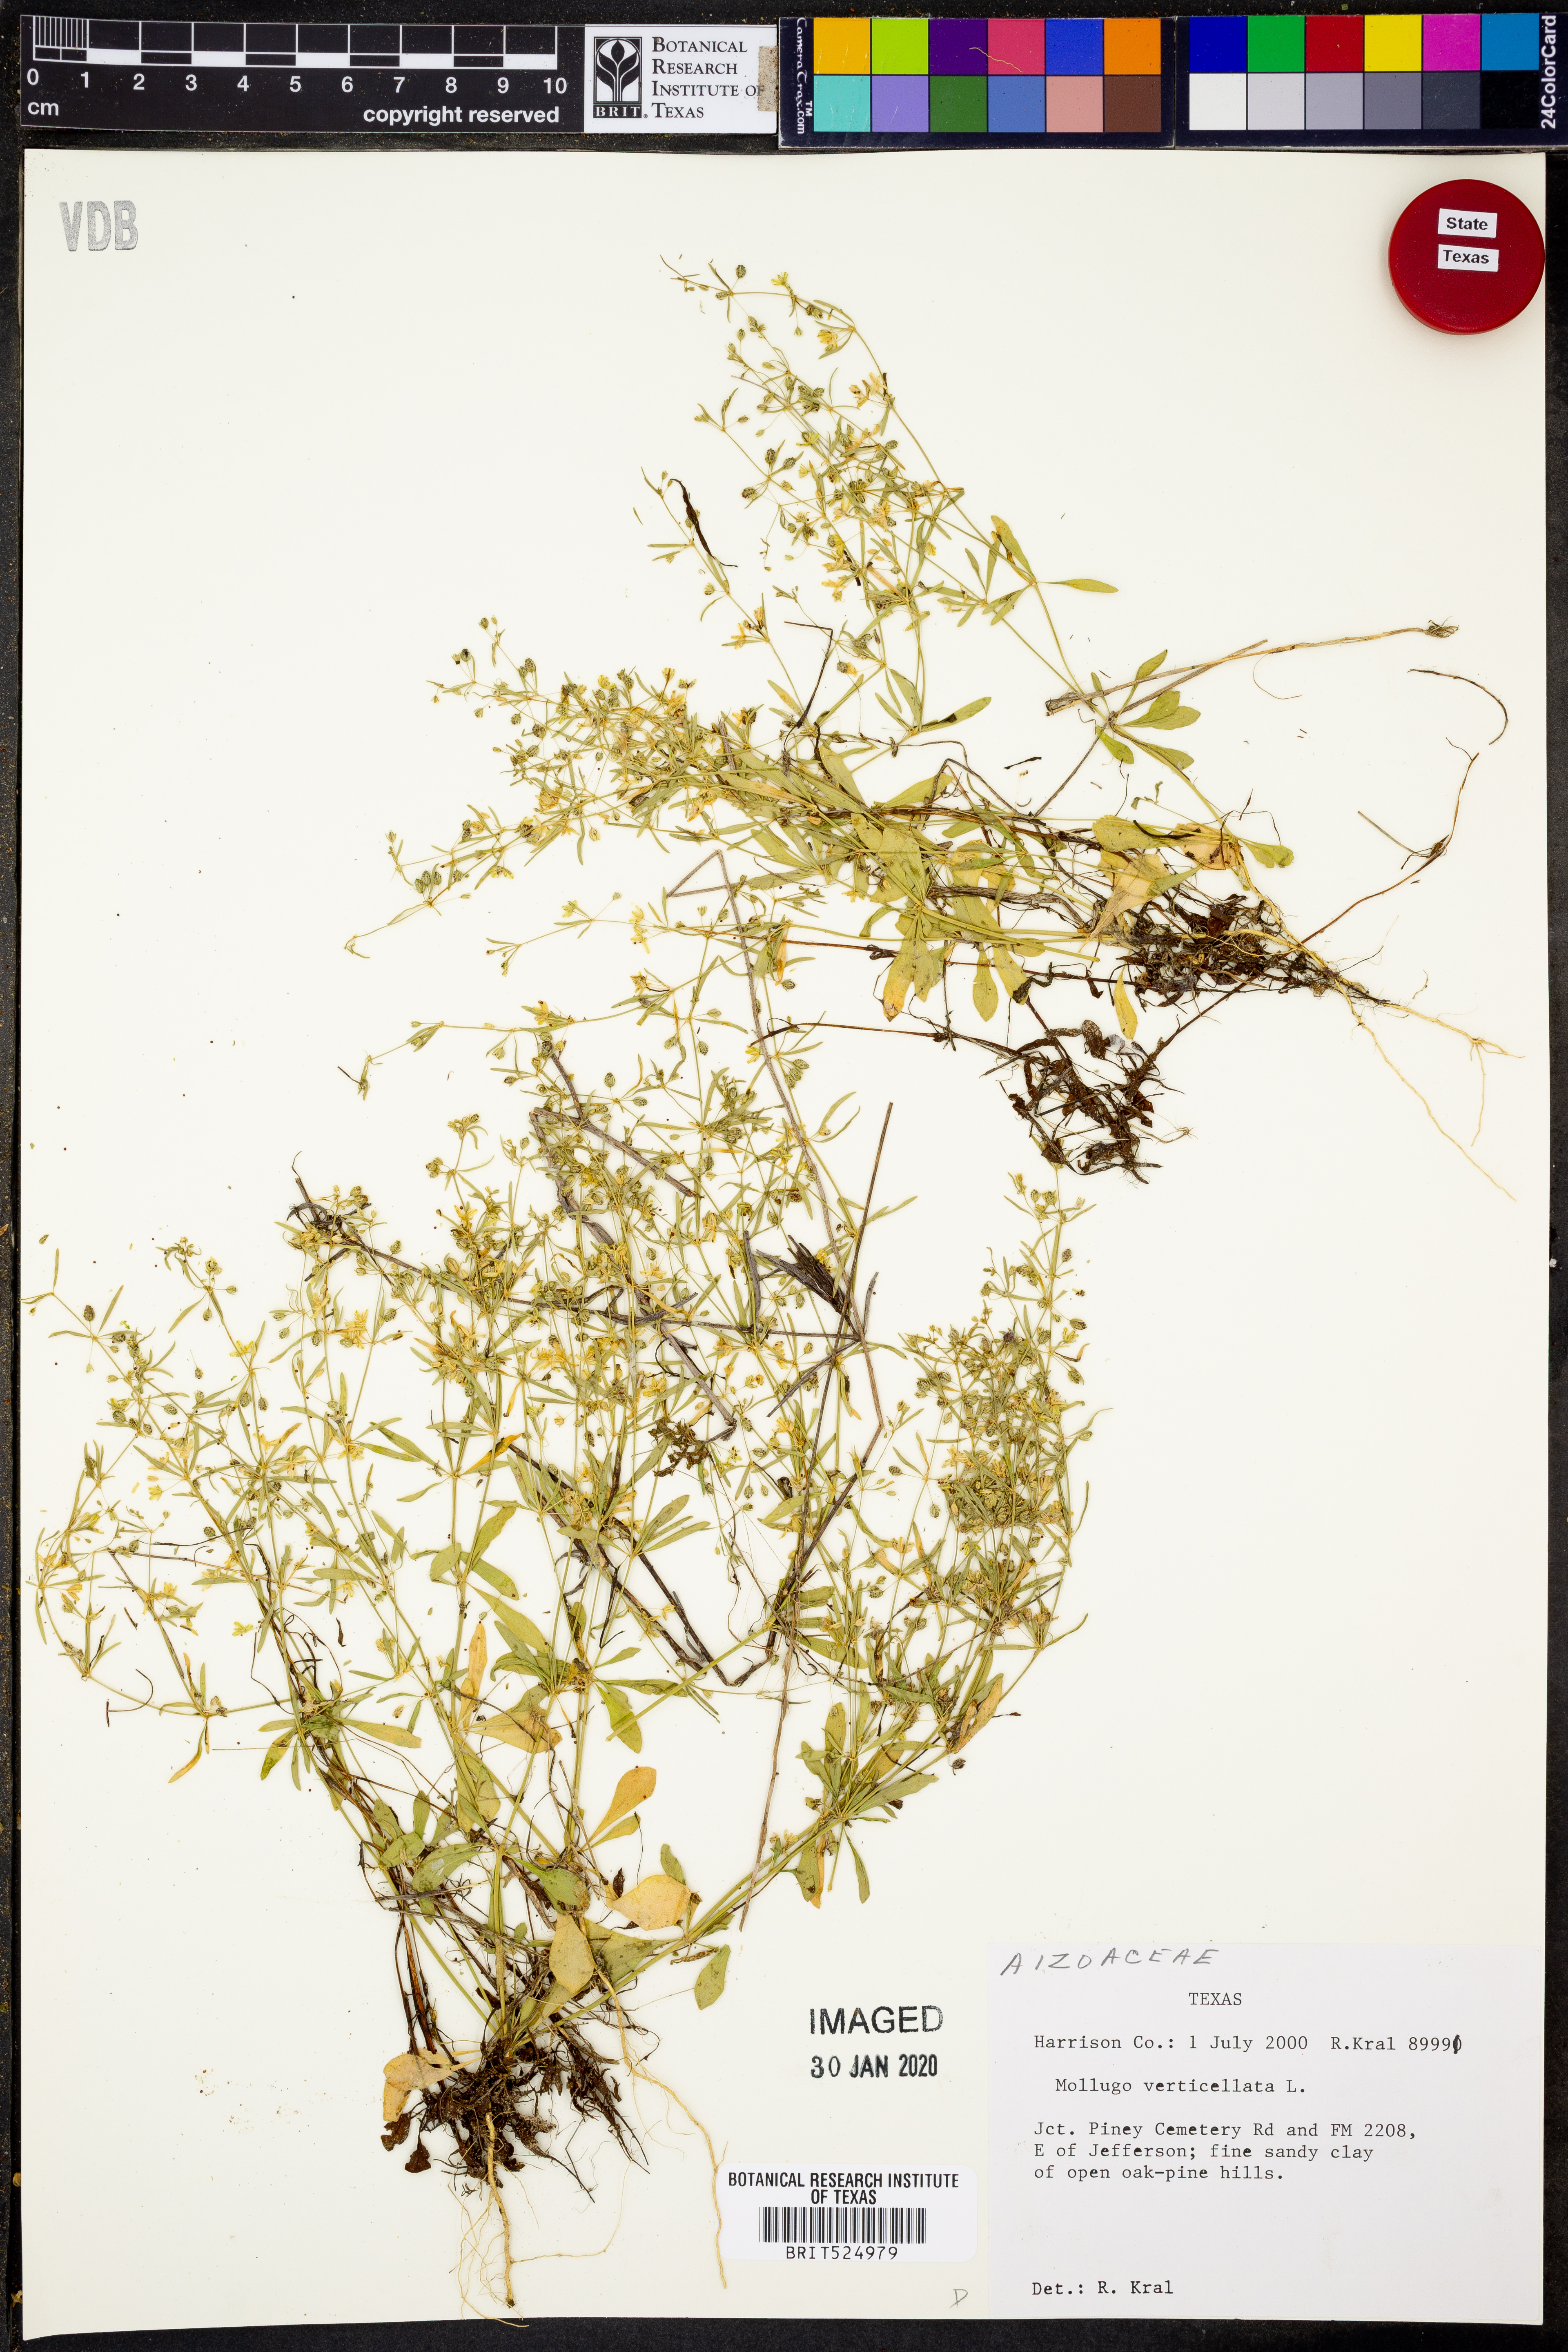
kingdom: Plantae
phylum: Tracheophyta
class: Magnoliopsida
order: Caryophyllales
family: Molluginaceae
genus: Mollugo
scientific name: Mollugo verticillata
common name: Green carpetweed
